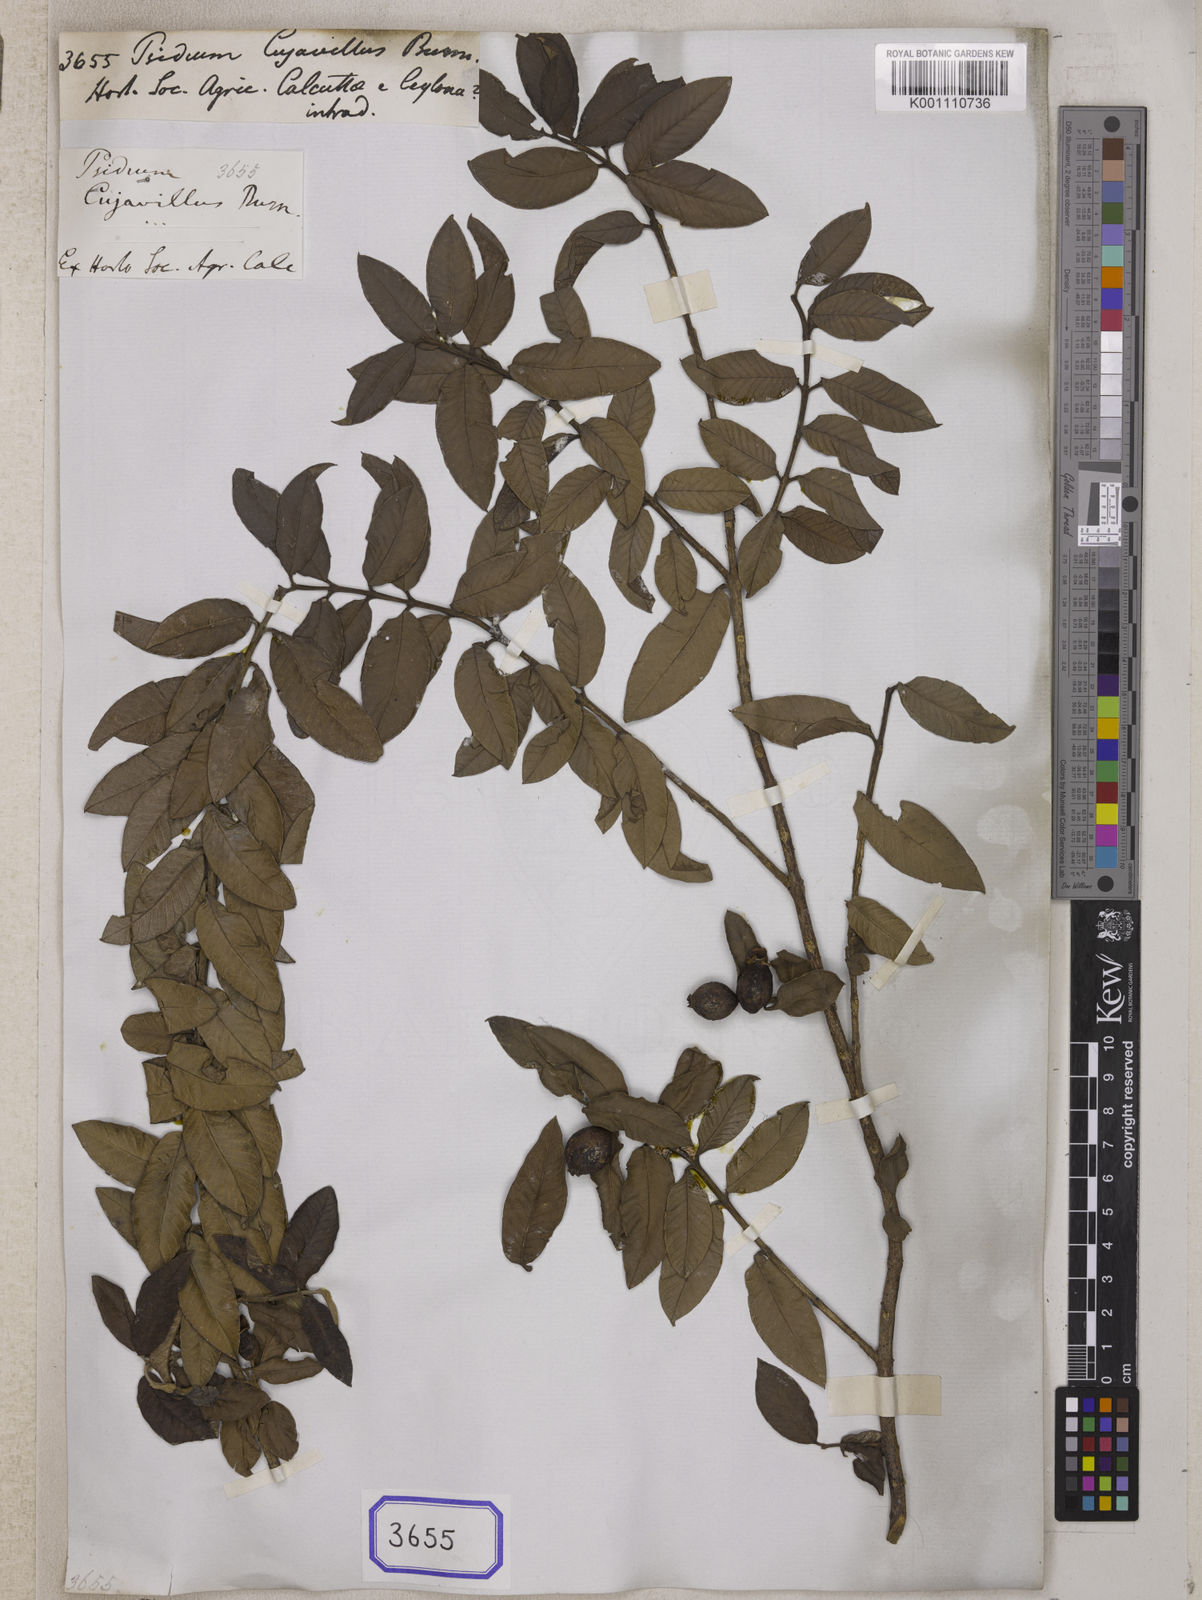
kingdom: Plantae
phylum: Tracheophyta
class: Magnoliopsida
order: Myrtales
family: Myrtaceae
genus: Psidium
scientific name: Psidium guajava
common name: Guava
